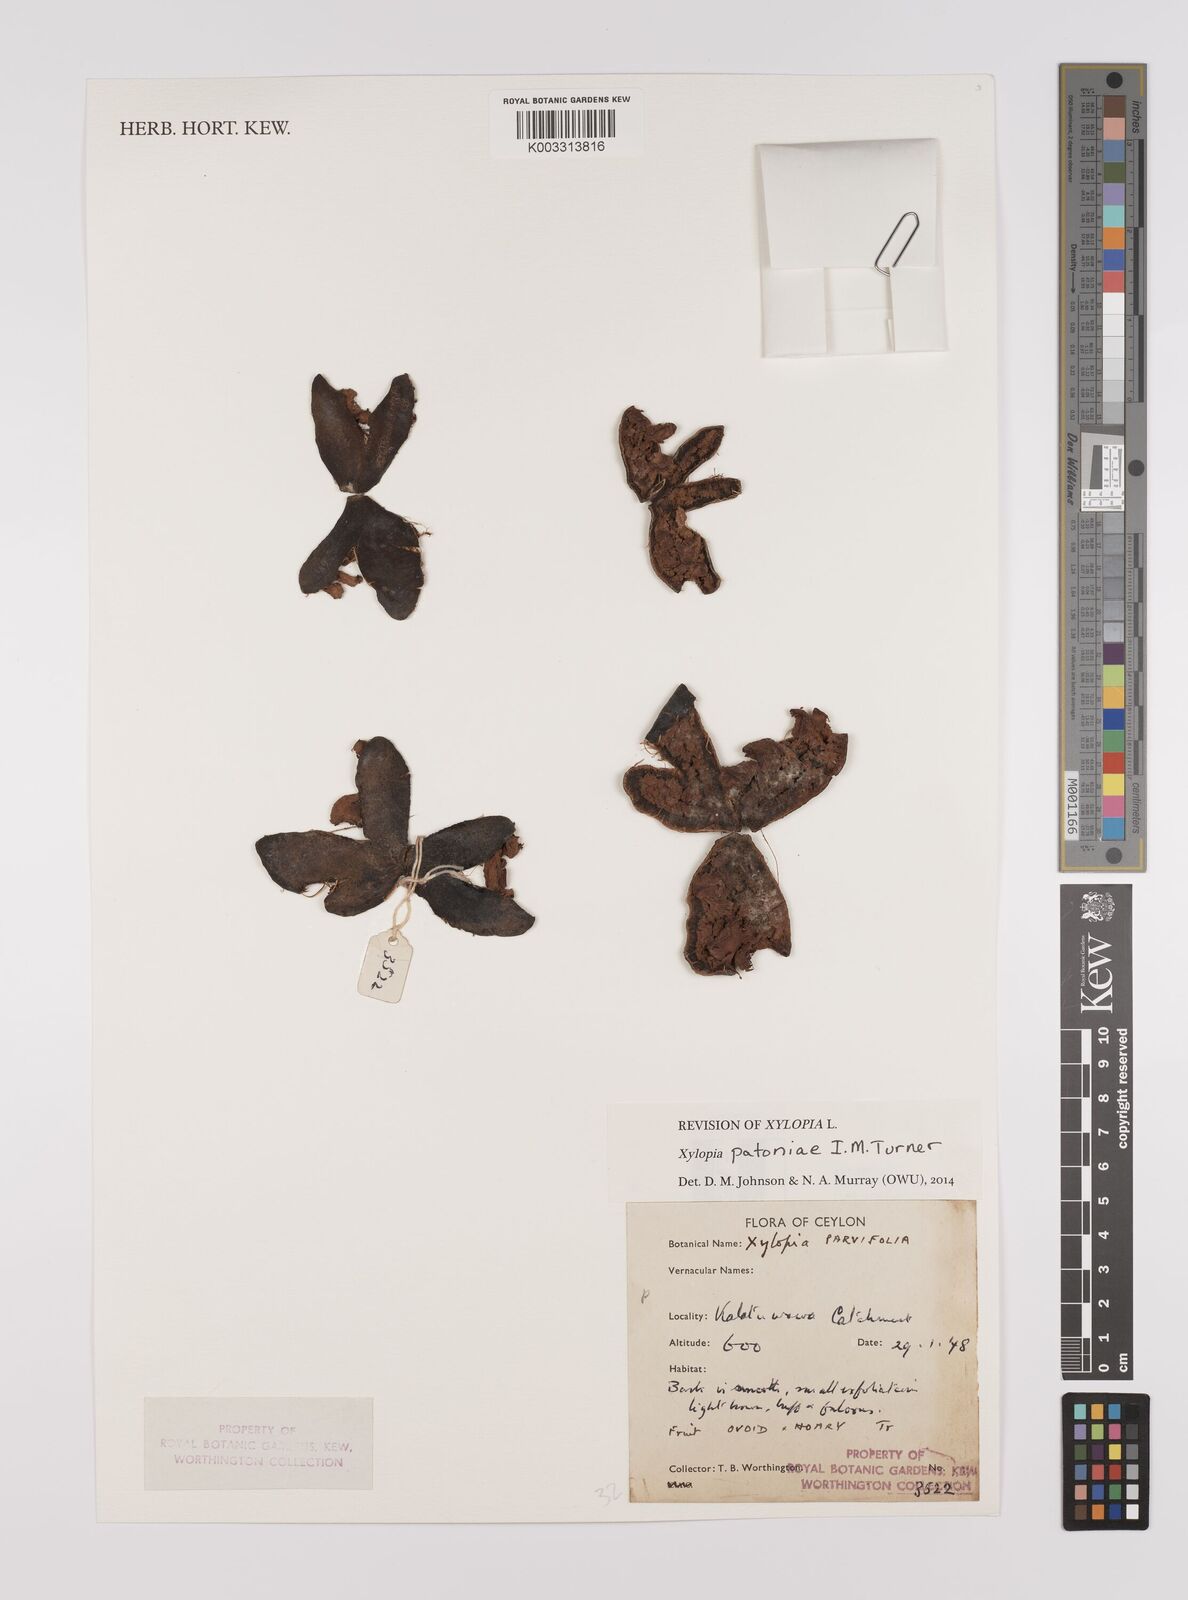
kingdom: Plantae
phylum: Tracheophyta
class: Magnoliopsida
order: Magnoliales
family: Annonaceae
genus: Xylopia
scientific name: Xylopia
